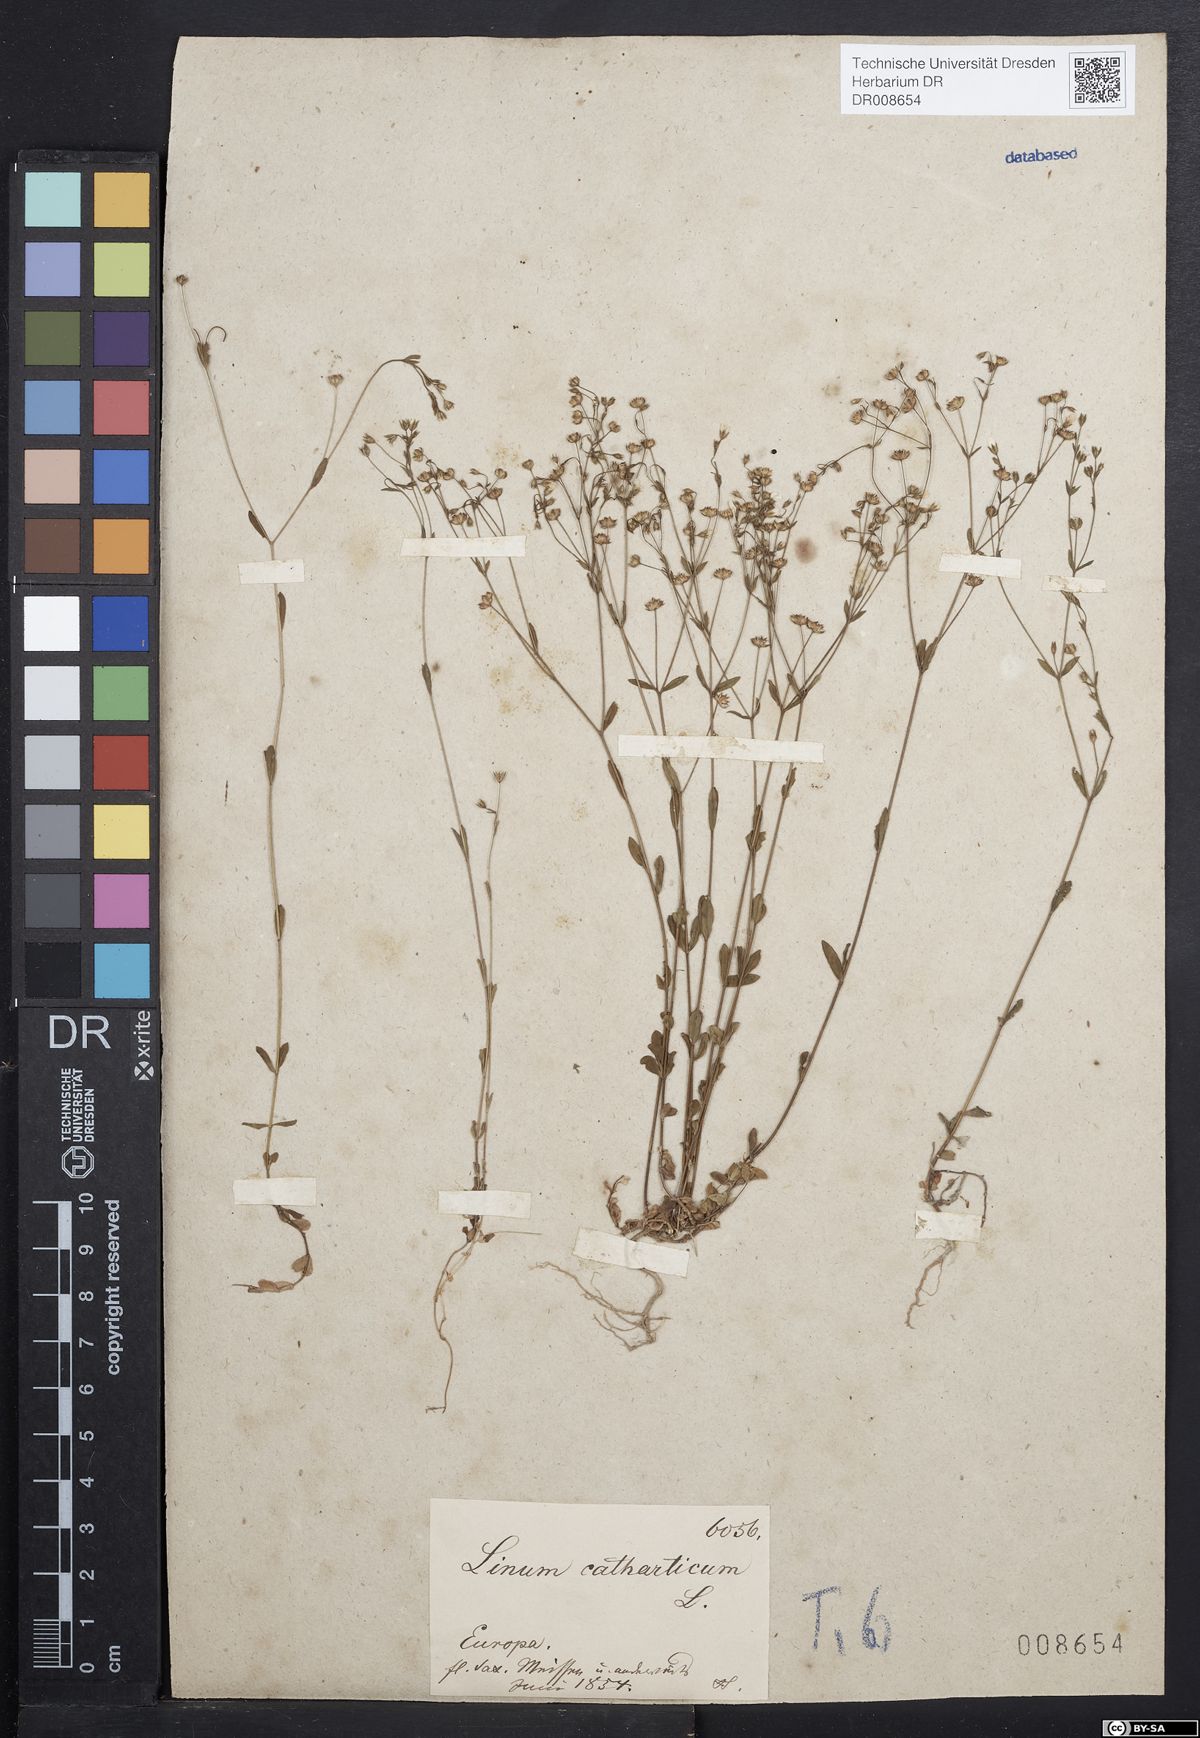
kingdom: Plantae
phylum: Tracheophyta
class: Magnoliopsida
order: Malpighiales
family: Linaceae
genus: Linum
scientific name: Linum catharticum
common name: Fairy flax
